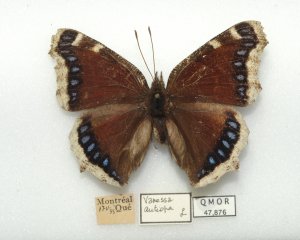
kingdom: Animalia
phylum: Arthropoda
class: Insecta
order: Lepidoptera
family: Nymphalidae
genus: Nymphalis
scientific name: Nymphalis antiopa
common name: Mourning Cloak
